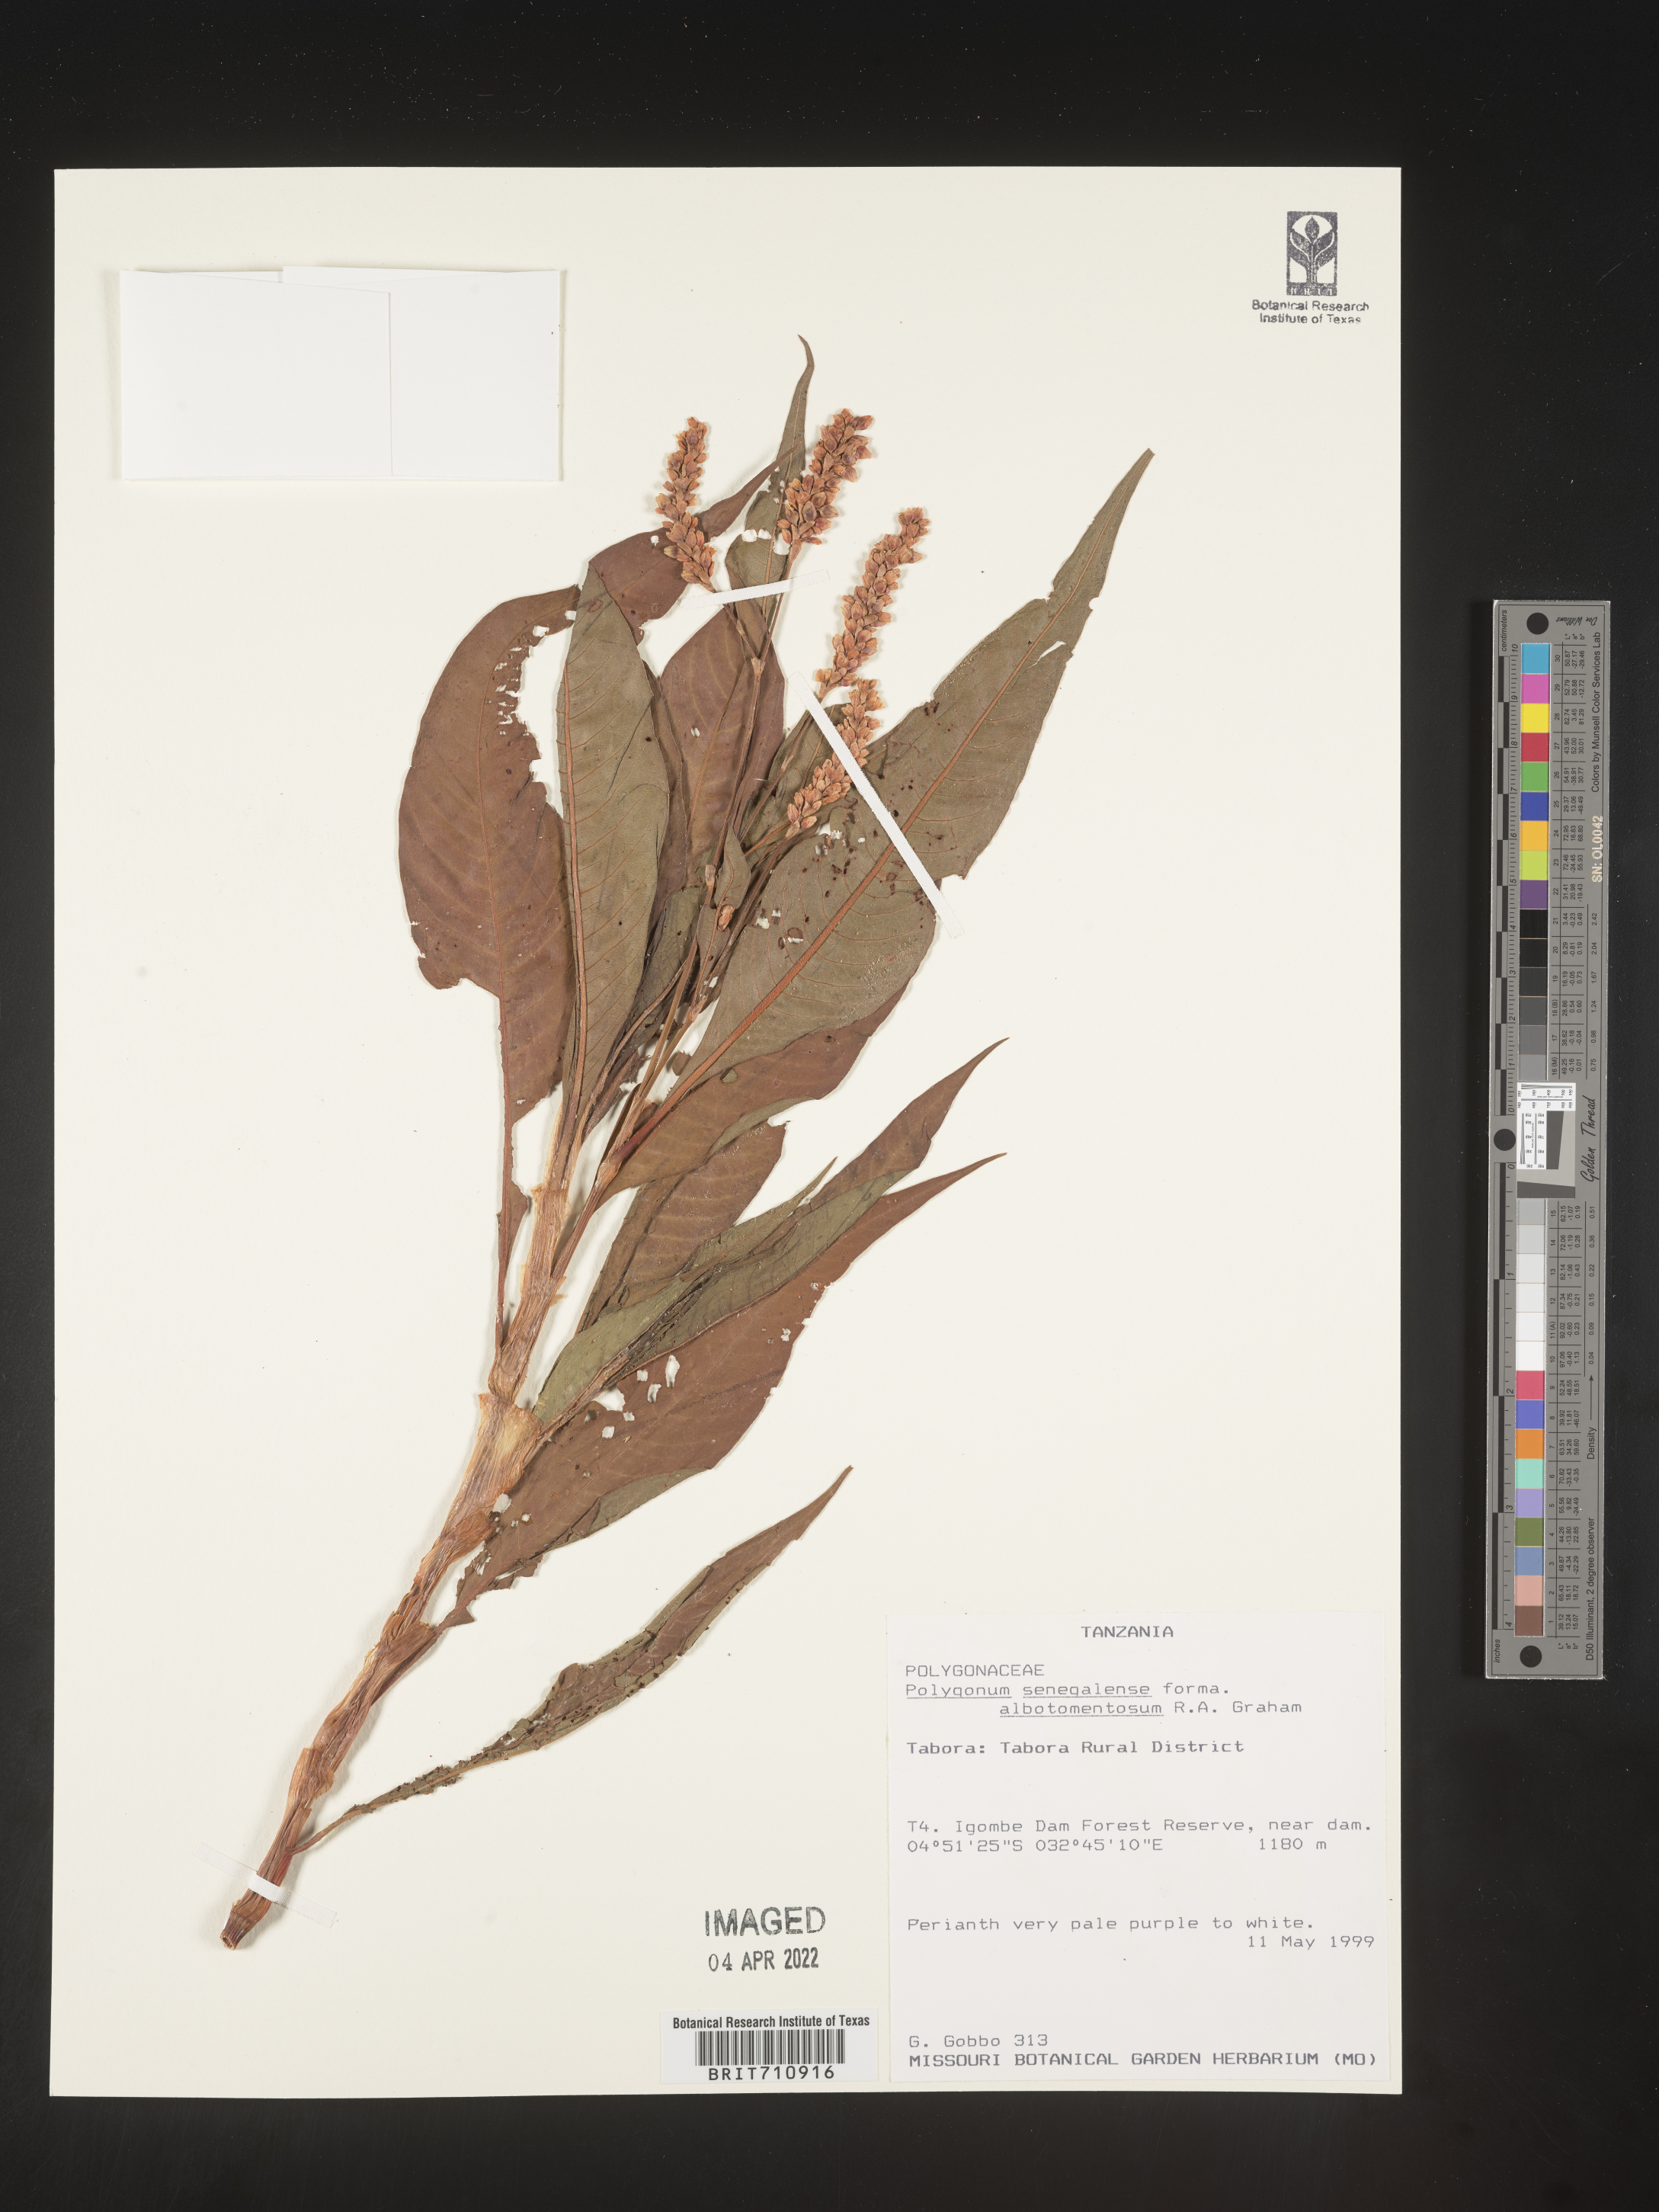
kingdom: Plantae
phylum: Tracheophyta
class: Magnoliopsida
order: Caryophyllales
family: Polygonaceae
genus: Polygonum
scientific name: Polygonum
